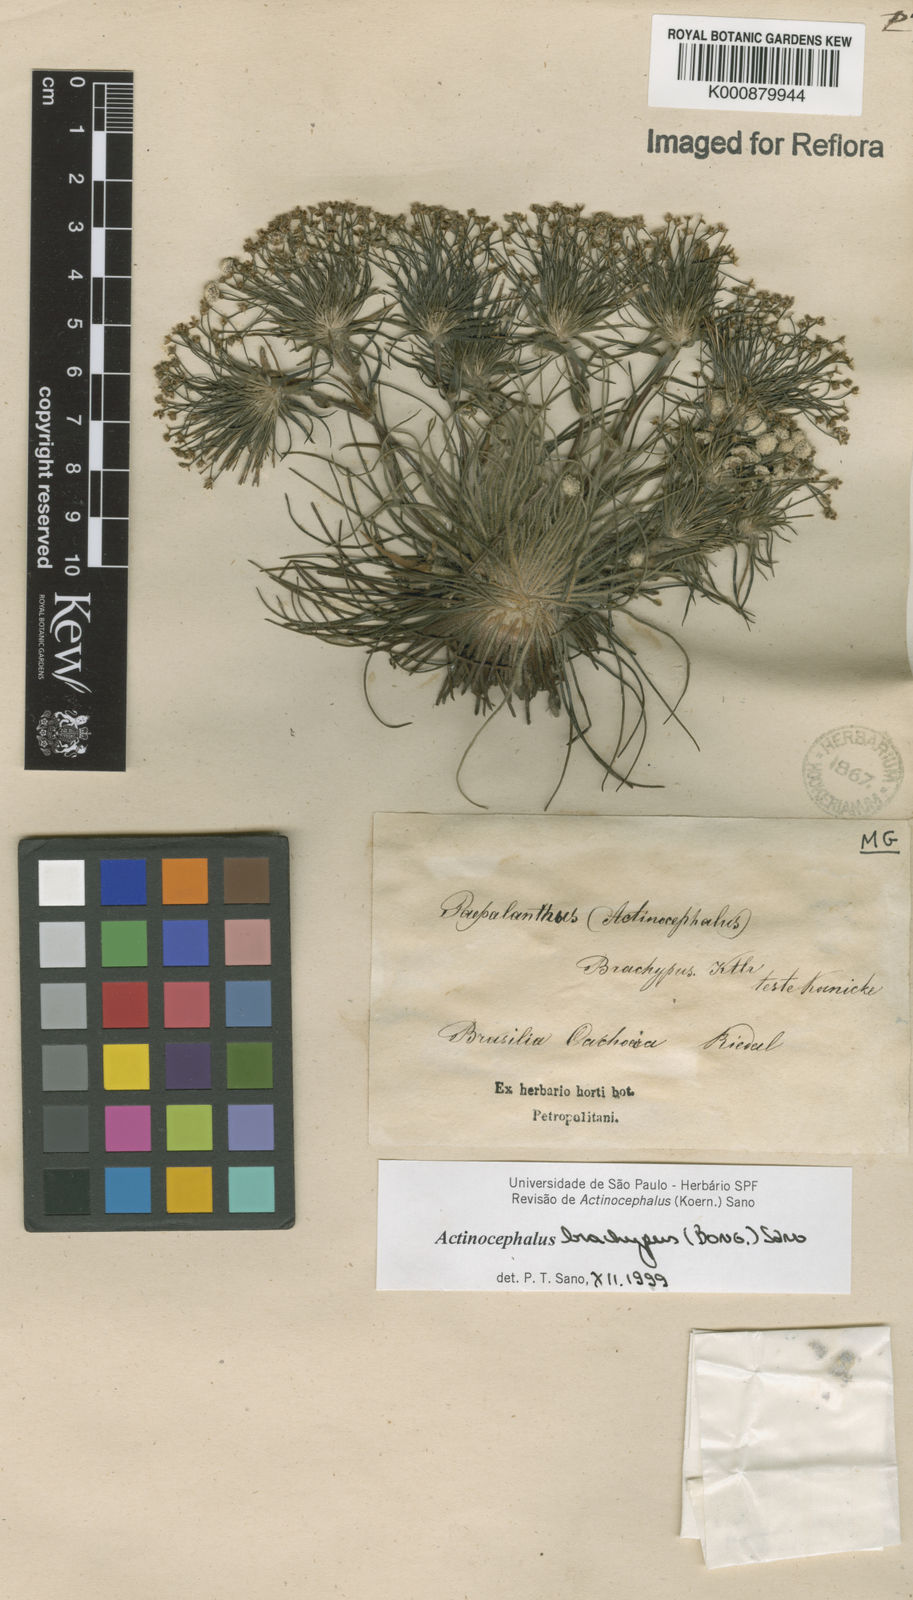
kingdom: Plantae
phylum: Tracheophyta
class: Liliopsida
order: Poales
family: Eriocaulaceae
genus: Paepalanthus
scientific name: Paepalanthus brachypus
